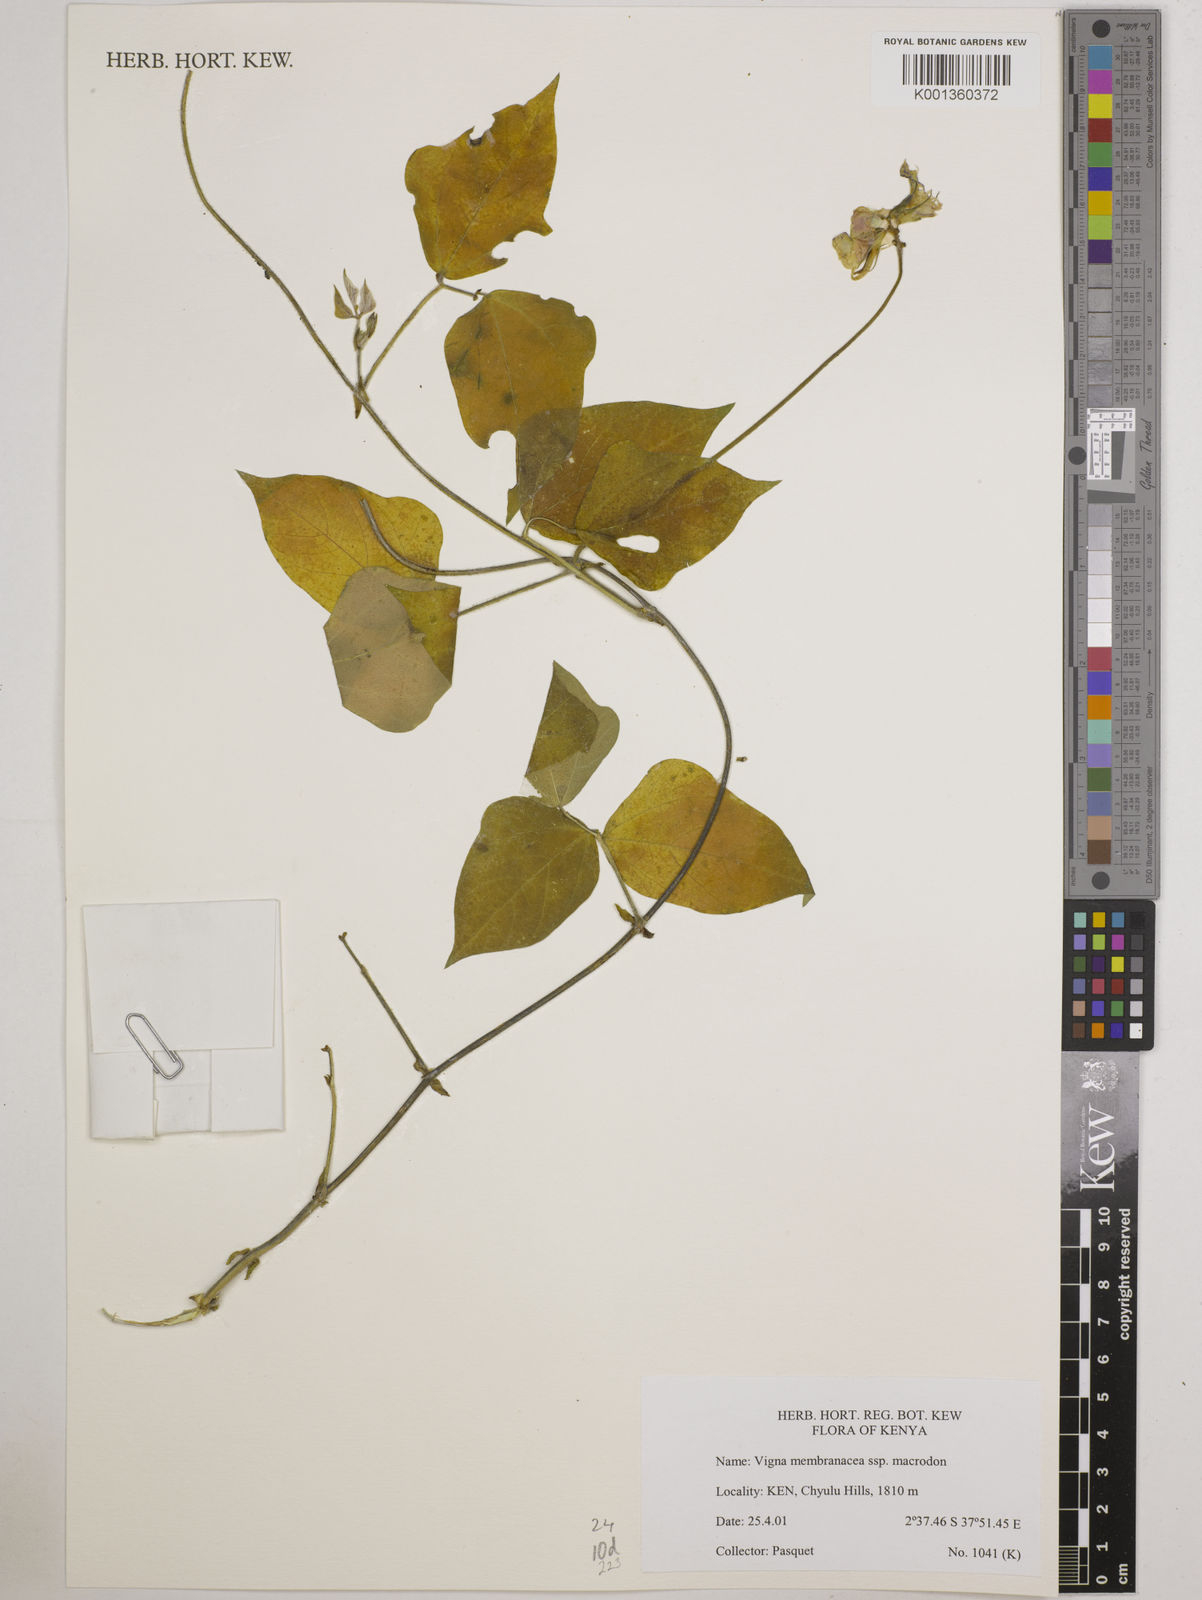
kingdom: Plantae
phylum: Tracheophyta
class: Magnoliopsida
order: Fabales
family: Fabaceae
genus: Vigna
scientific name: Vigna
